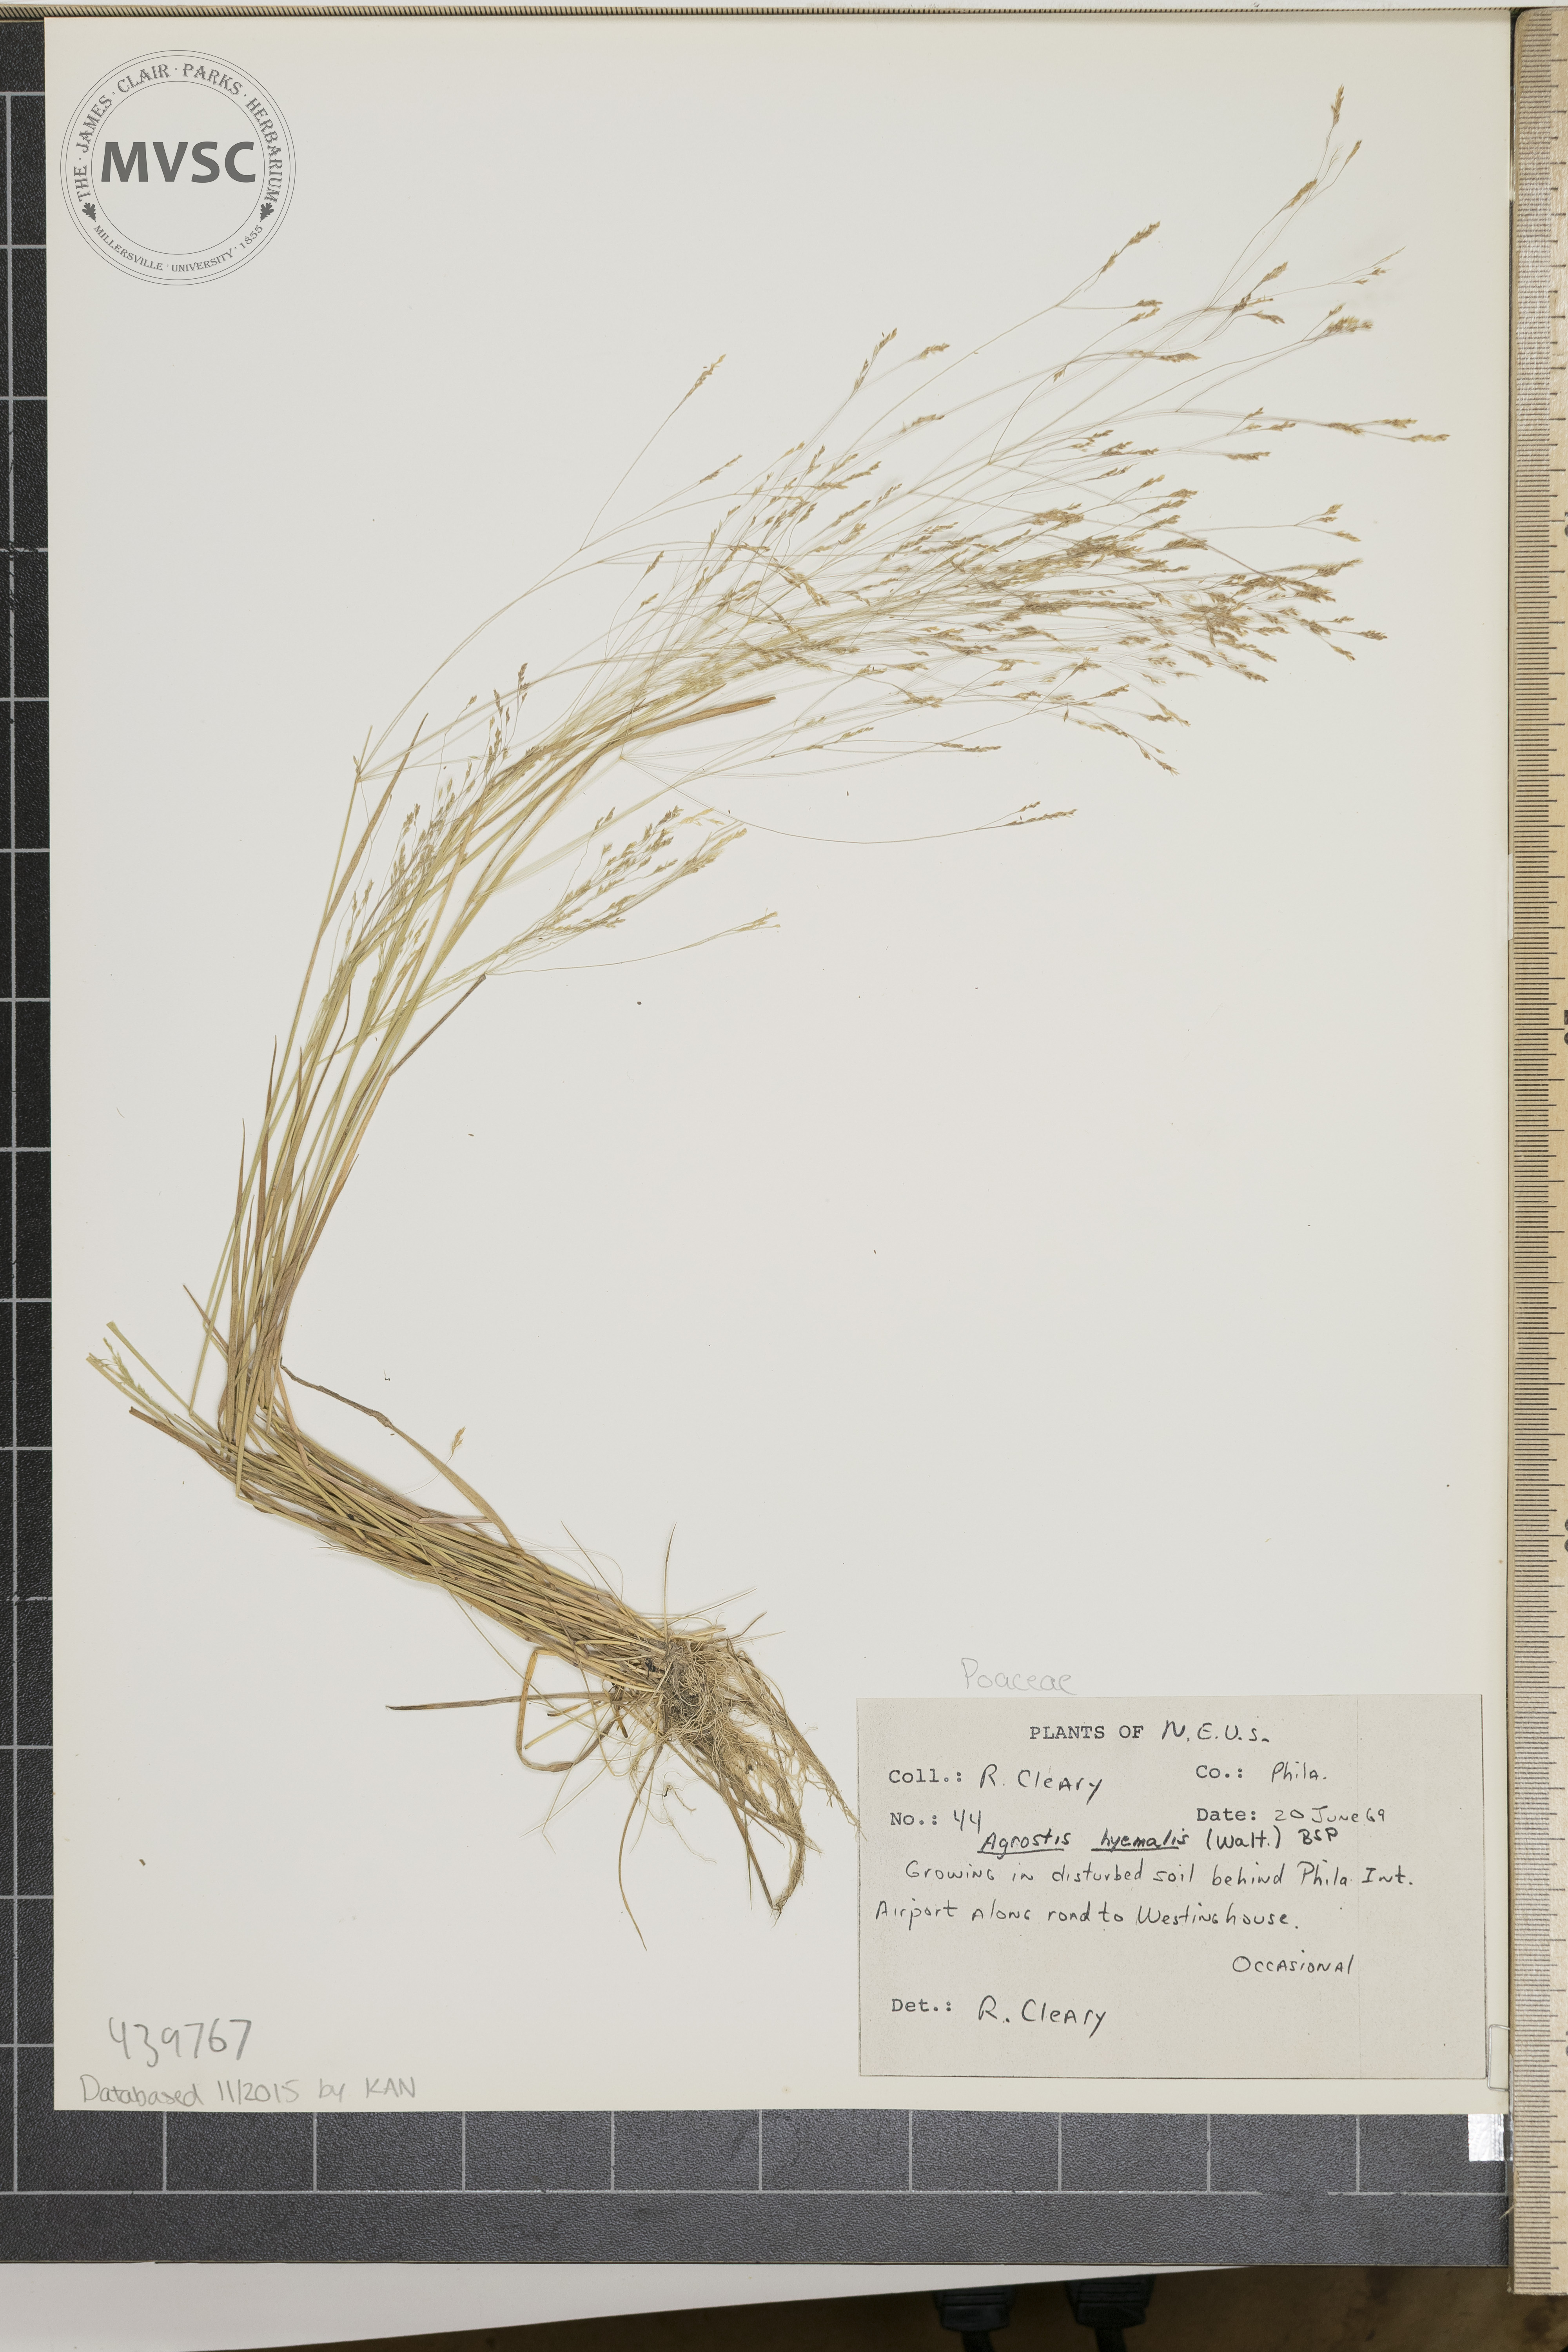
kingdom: Plantae
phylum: Tracheophyta
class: Liliopsida
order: Poales
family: Poaceae
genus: Agrostis
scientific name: Agrostis hyemalis
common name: Small bent
